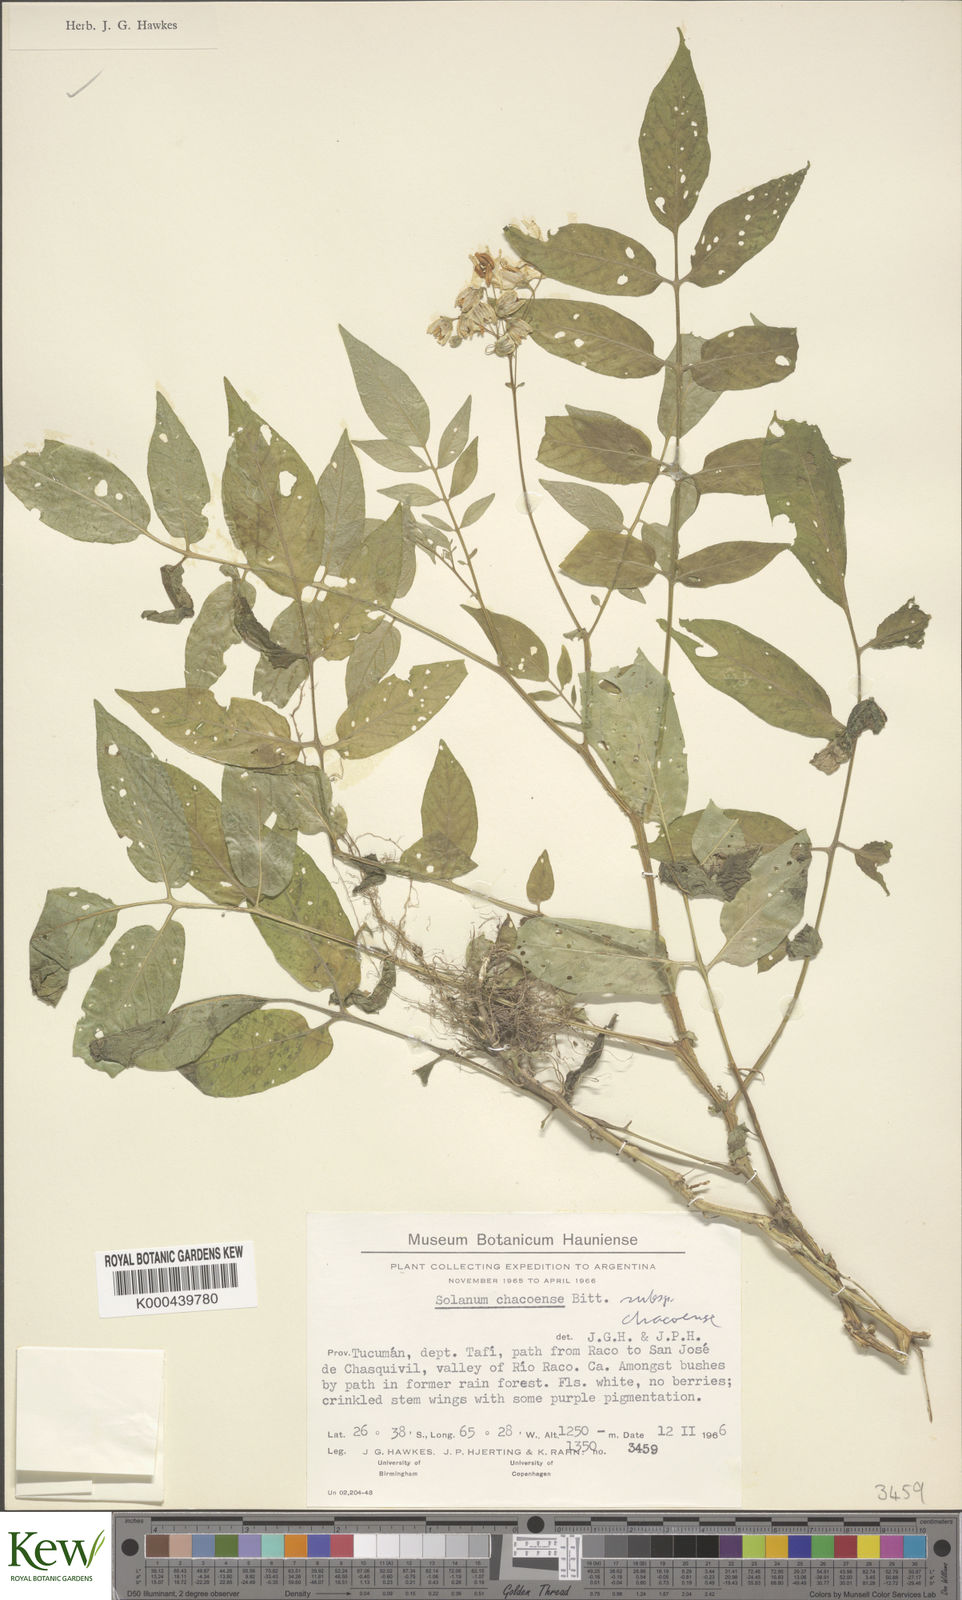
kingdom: Plantae
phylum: Tracheophyta
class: Magnoliopsida
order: Solanales
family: Solanaceae
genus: Solanum
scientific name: Solanum chacoense
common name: Chaco potato
